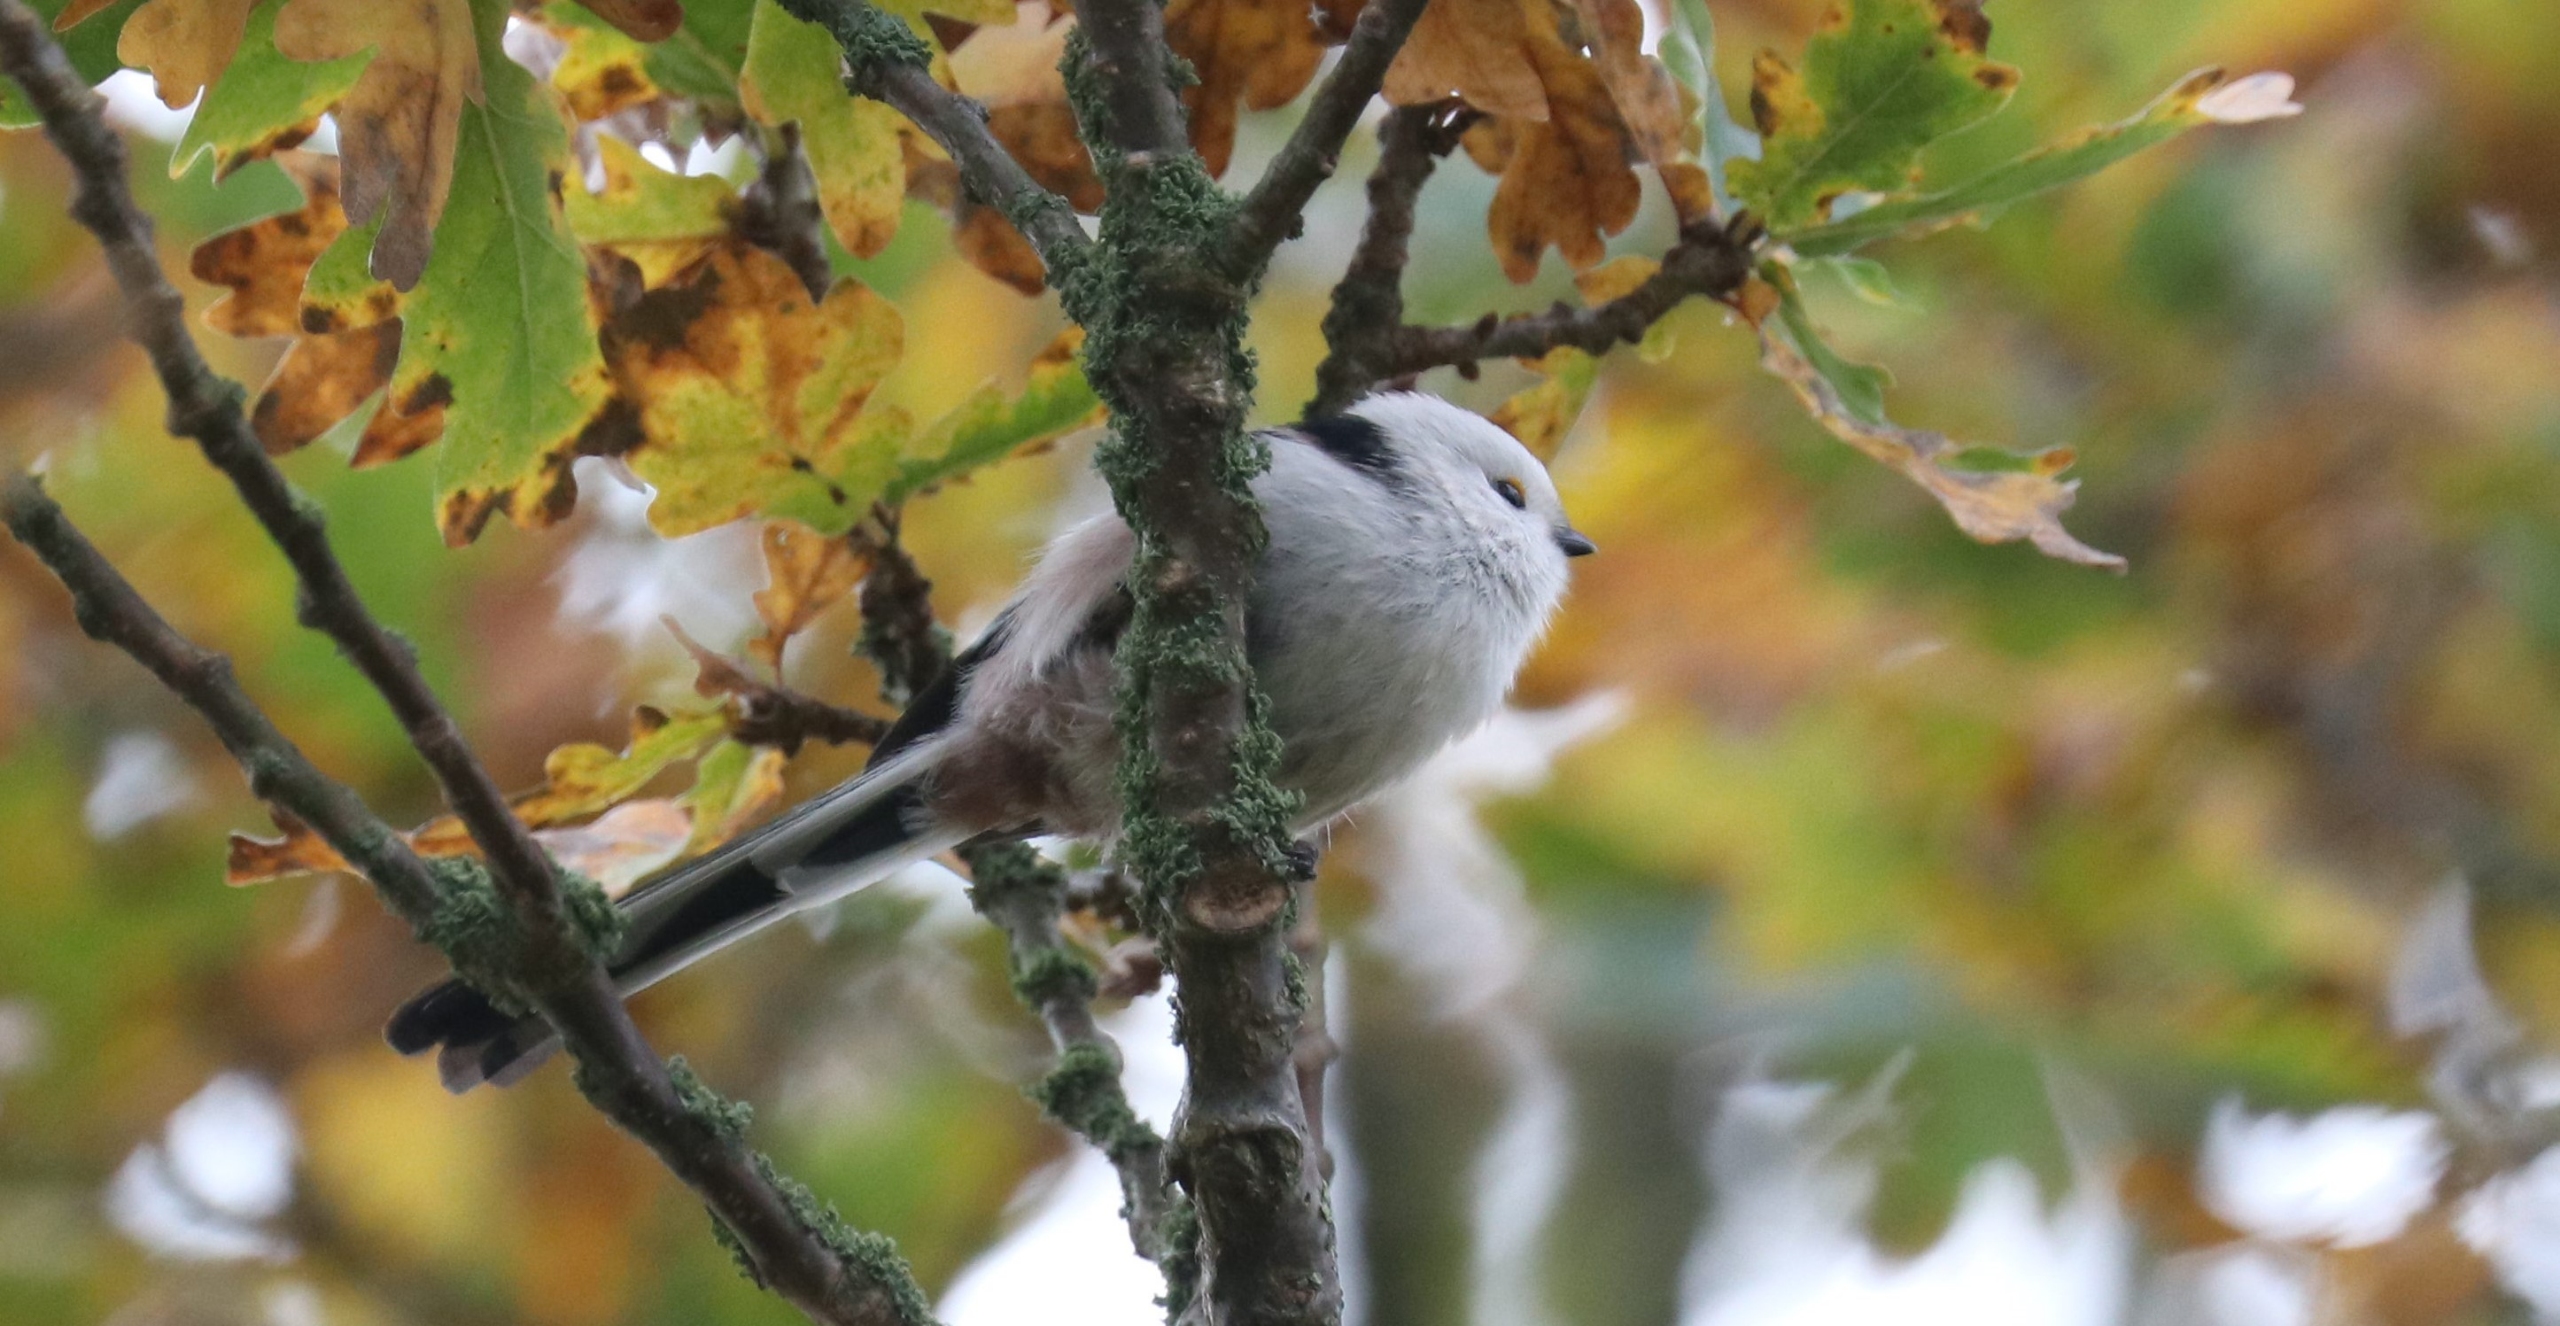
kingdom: Animalia
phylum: Chordata
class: Aves
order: Passeriformes
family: Aegithalidae
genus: Aegithalos
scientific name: Aegithalos caudatus
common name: Halemejse
